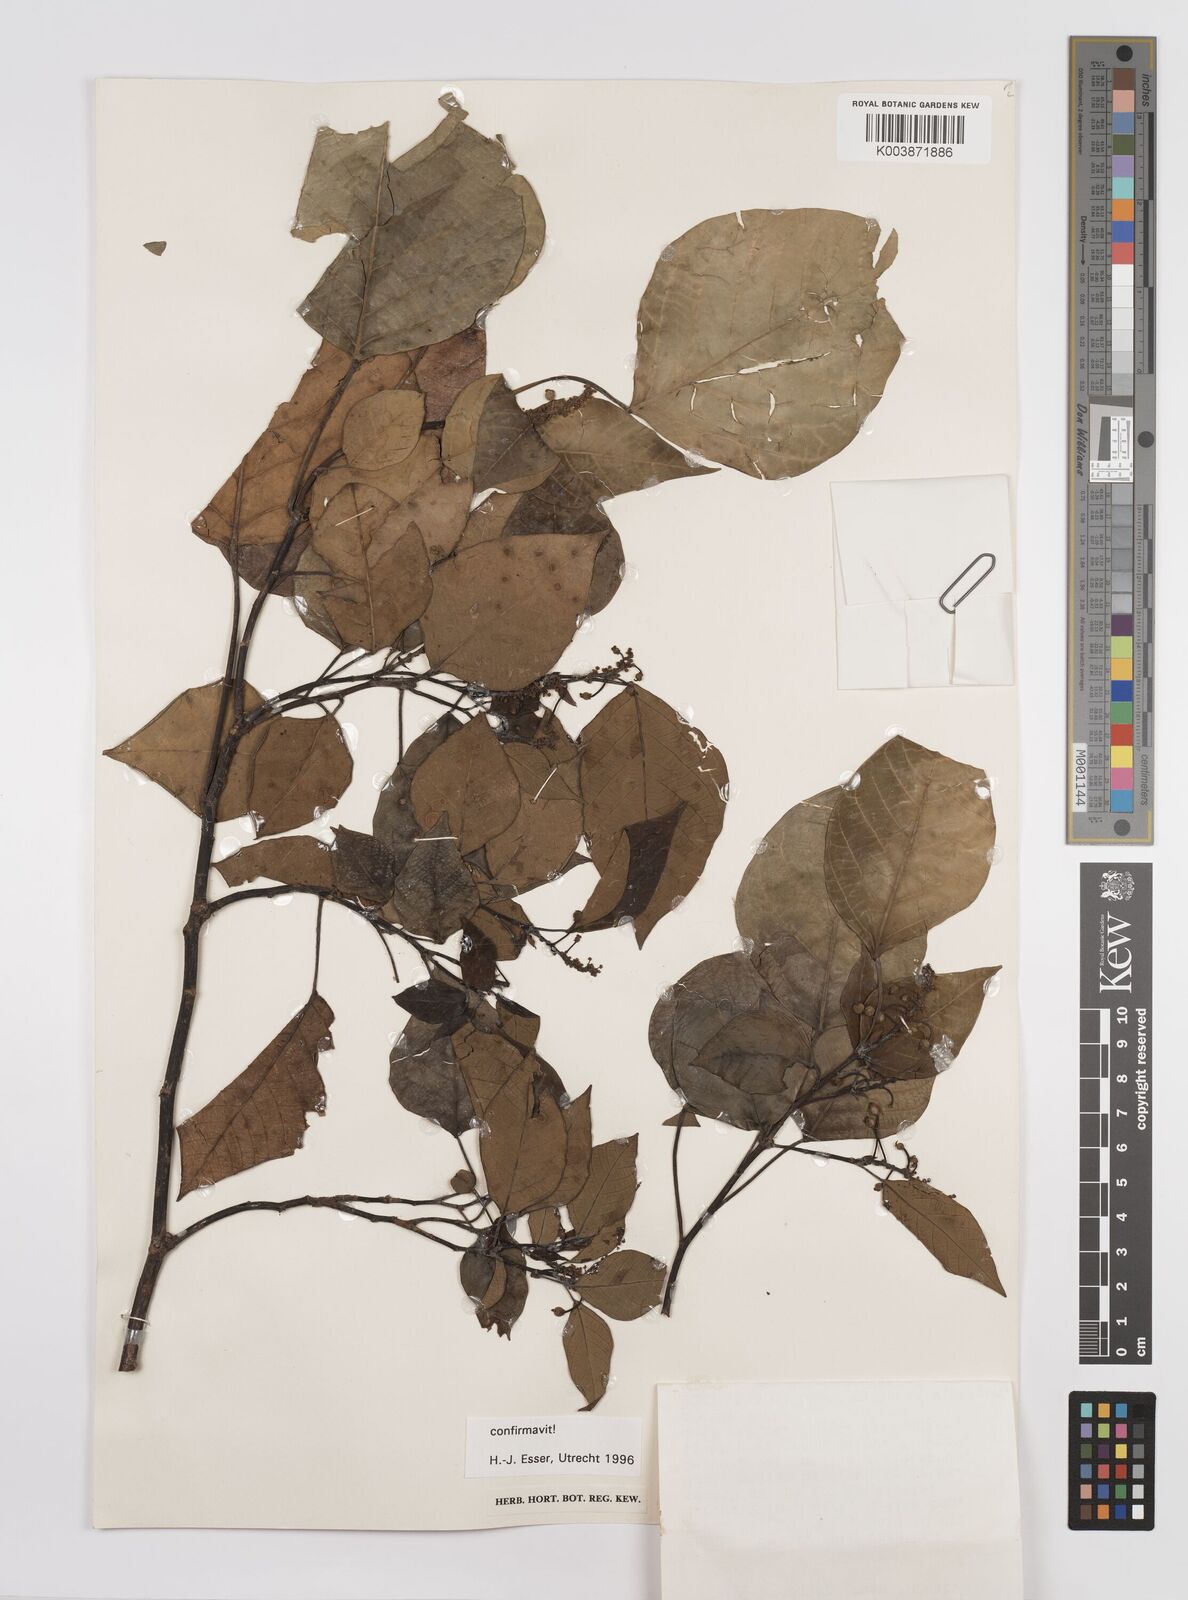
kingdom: Plantae
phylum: Tracheophyta
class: Magnoliopsida
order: Malpighiales
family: Euphorbiaceae
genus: Homalanthus
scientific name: Homalanthus novoguineensis
